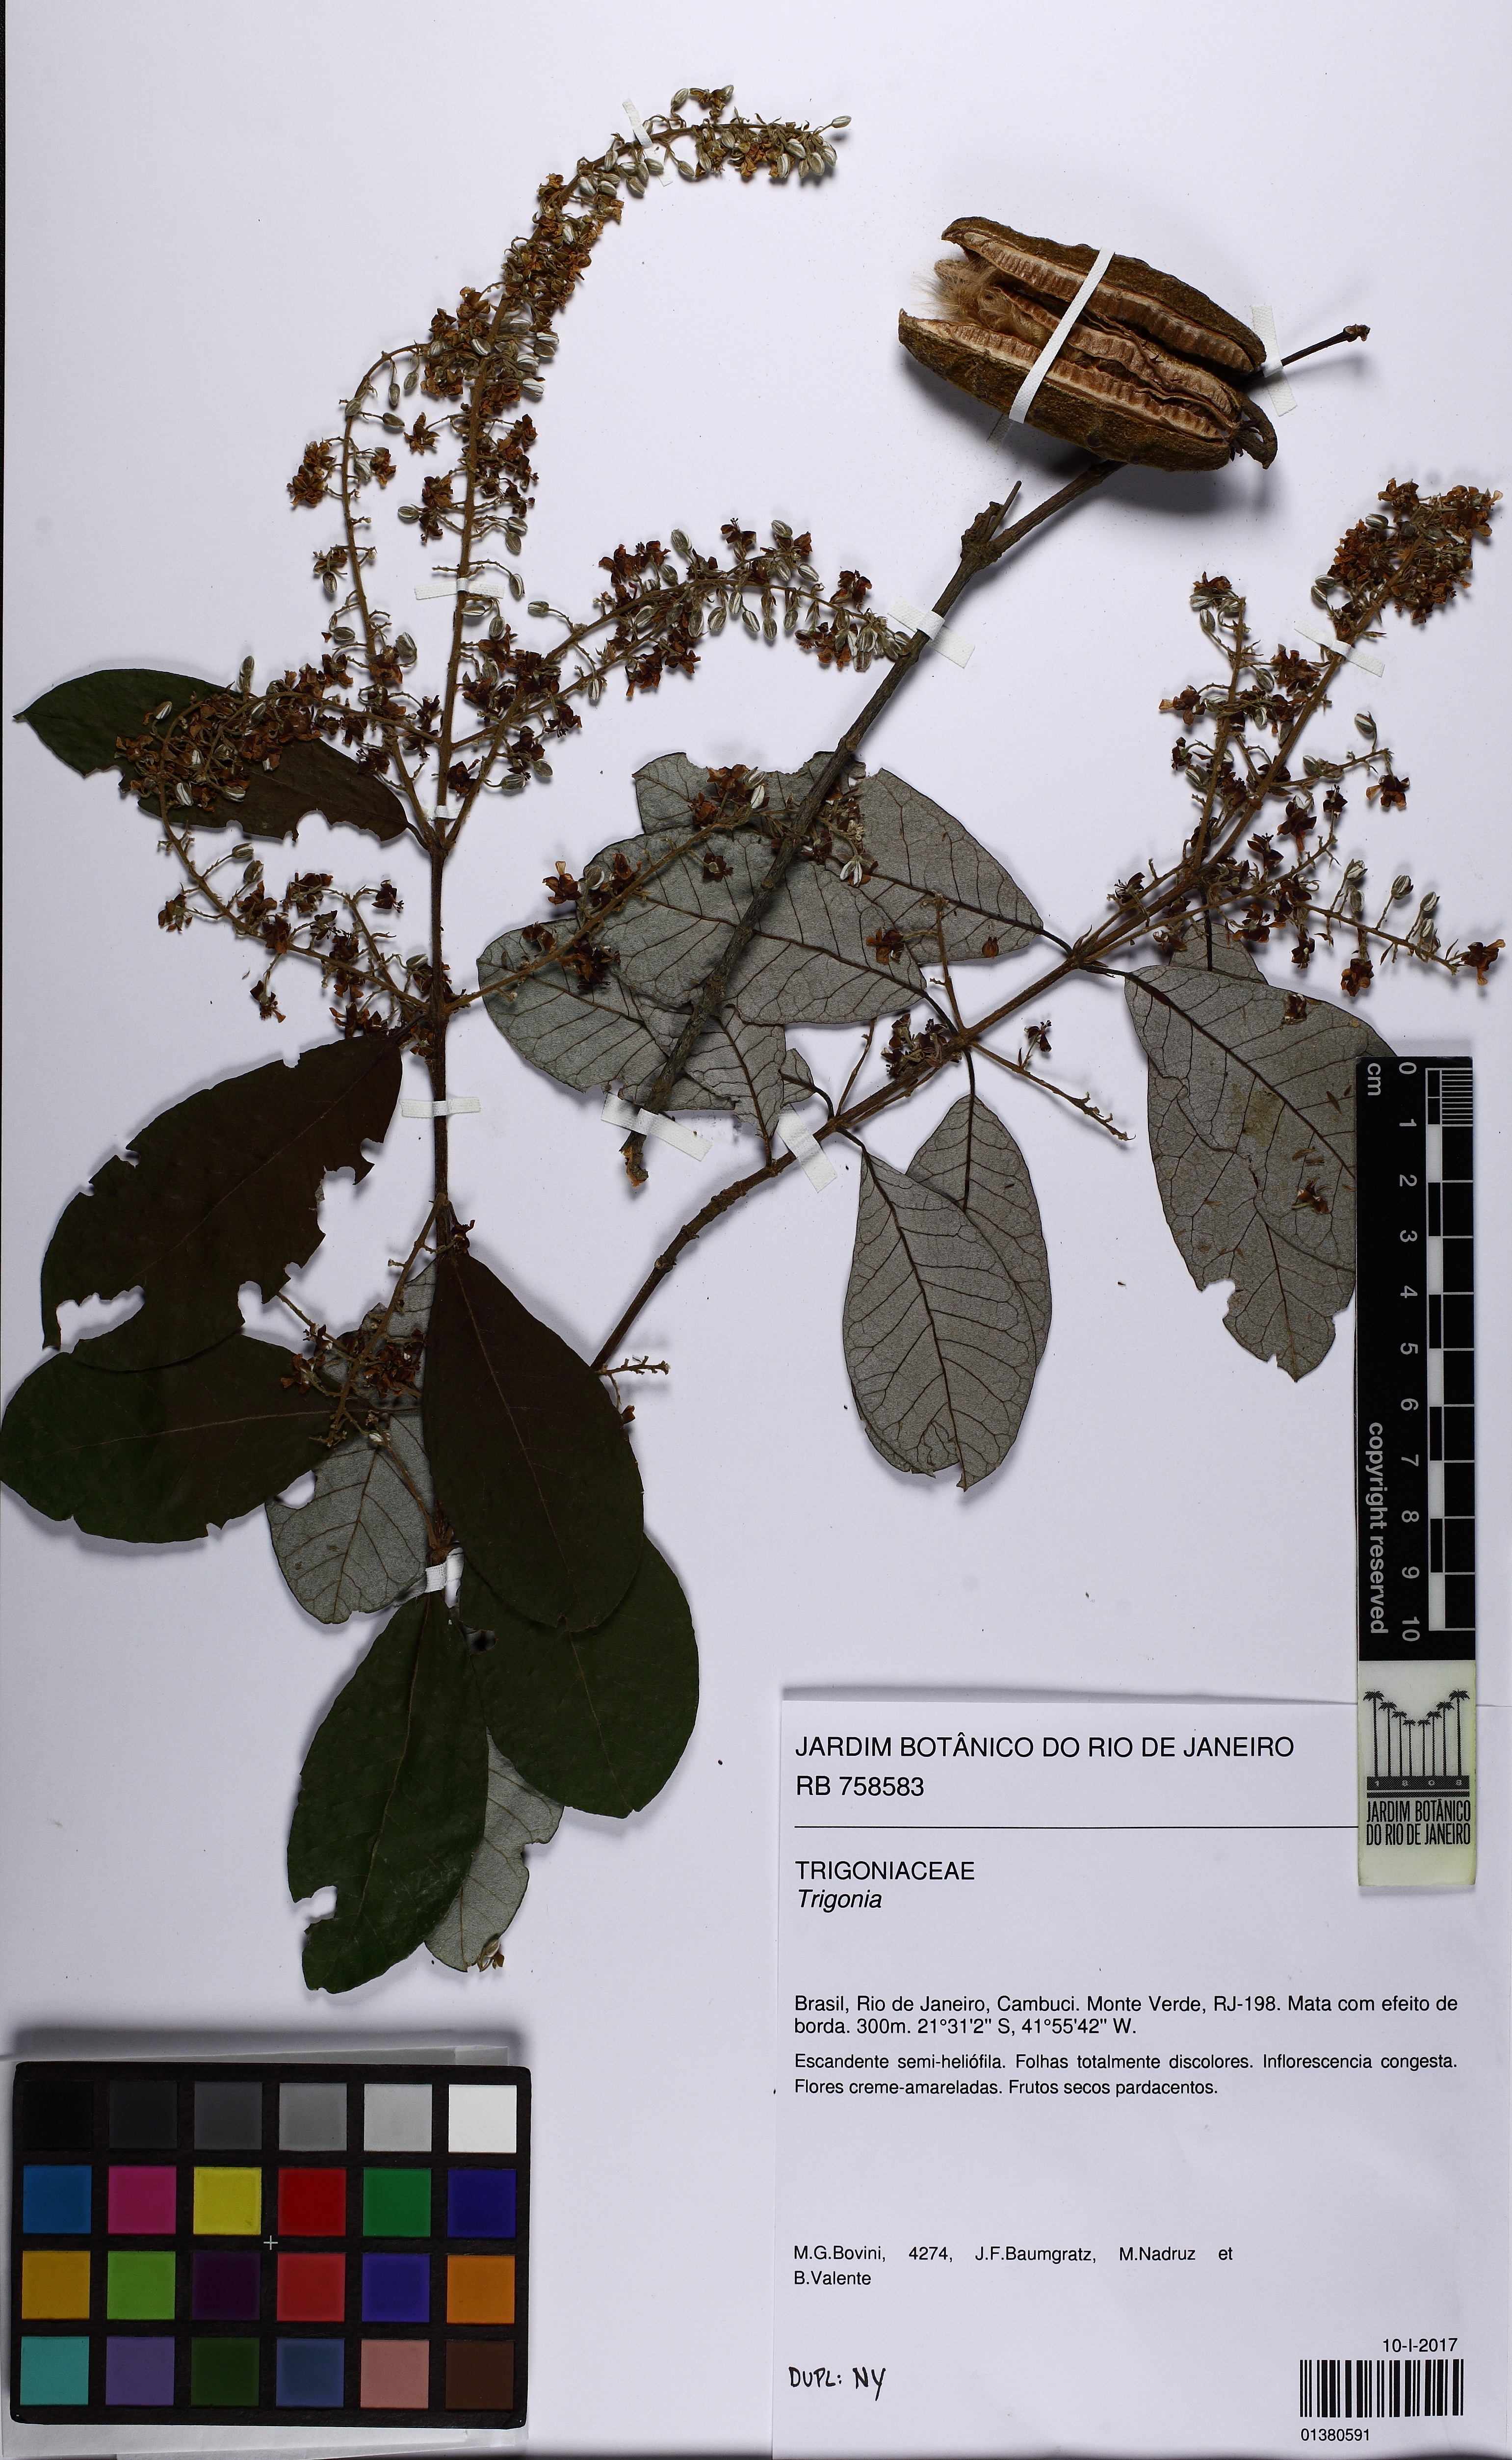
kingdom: Plantae
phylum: Tracheophyta
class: Magnoliopsida
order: Malpighiales
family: Trigoniaceae
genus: Trigonia
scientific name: Trigonia
